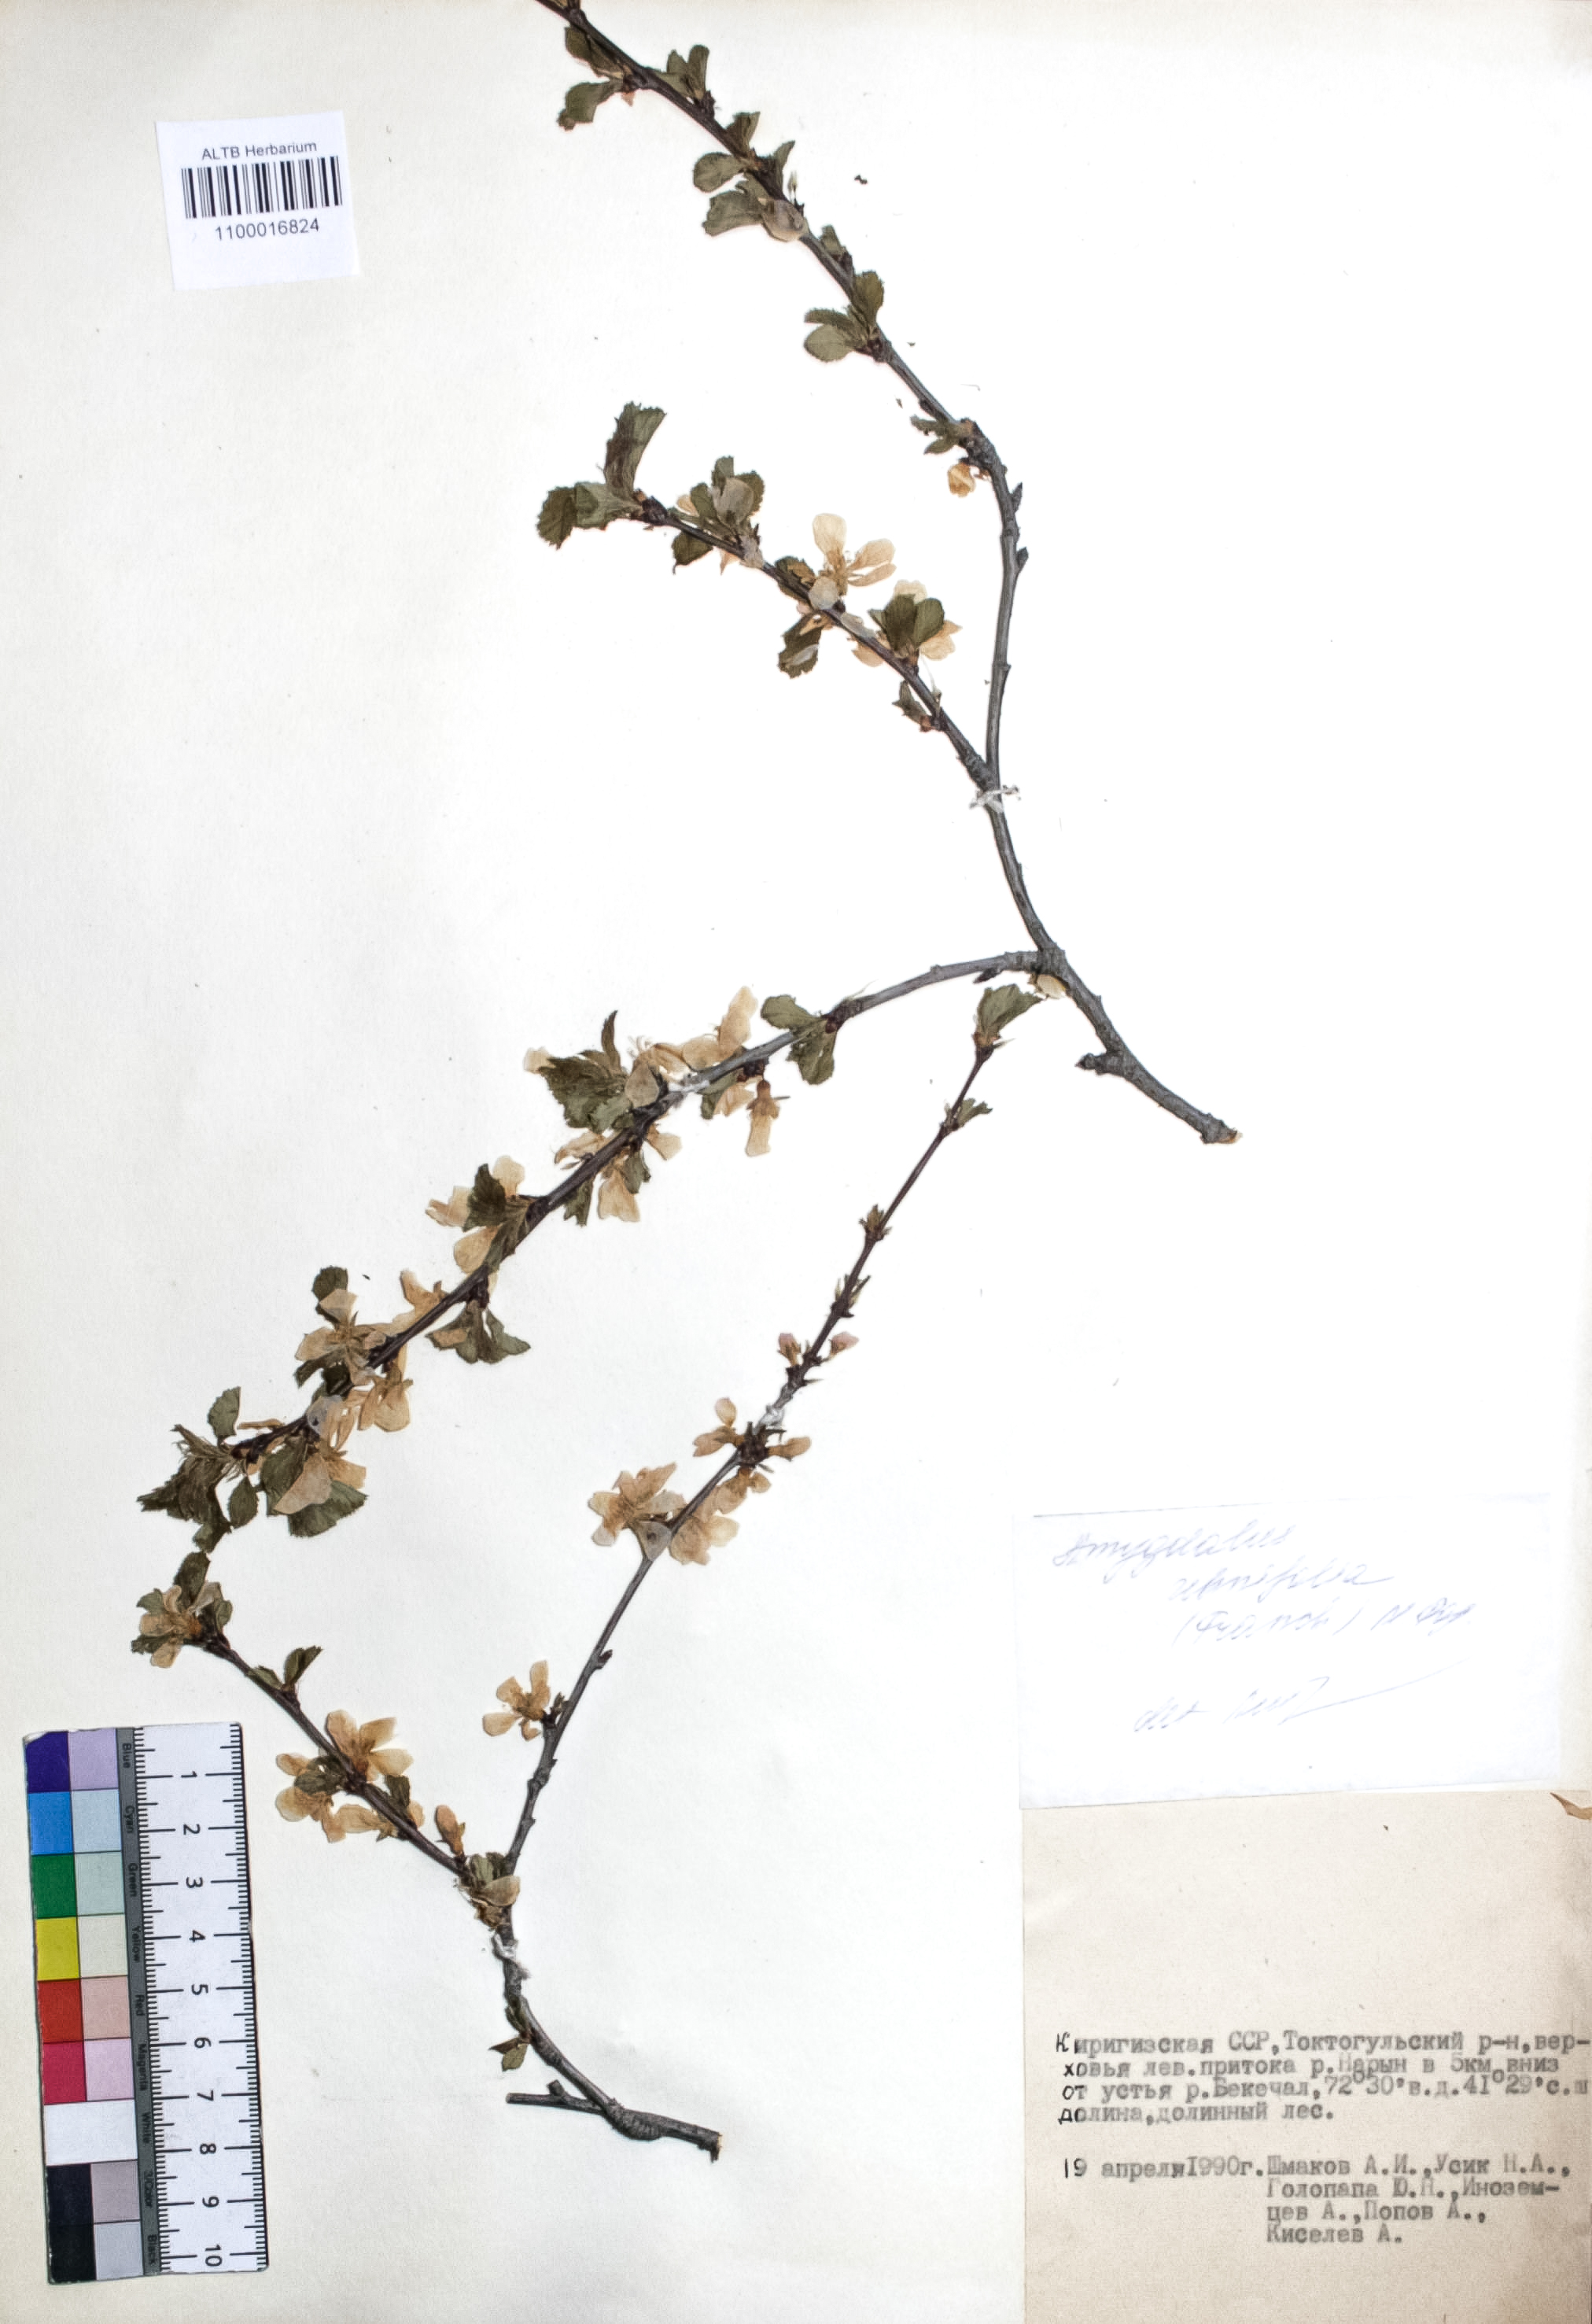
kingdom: Plantae
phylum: Tracheophyta
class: Magnoliopsida
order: Rosales
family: Rosaceae
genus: Prunus
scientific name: Prunus triloba
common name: Flowering plum
